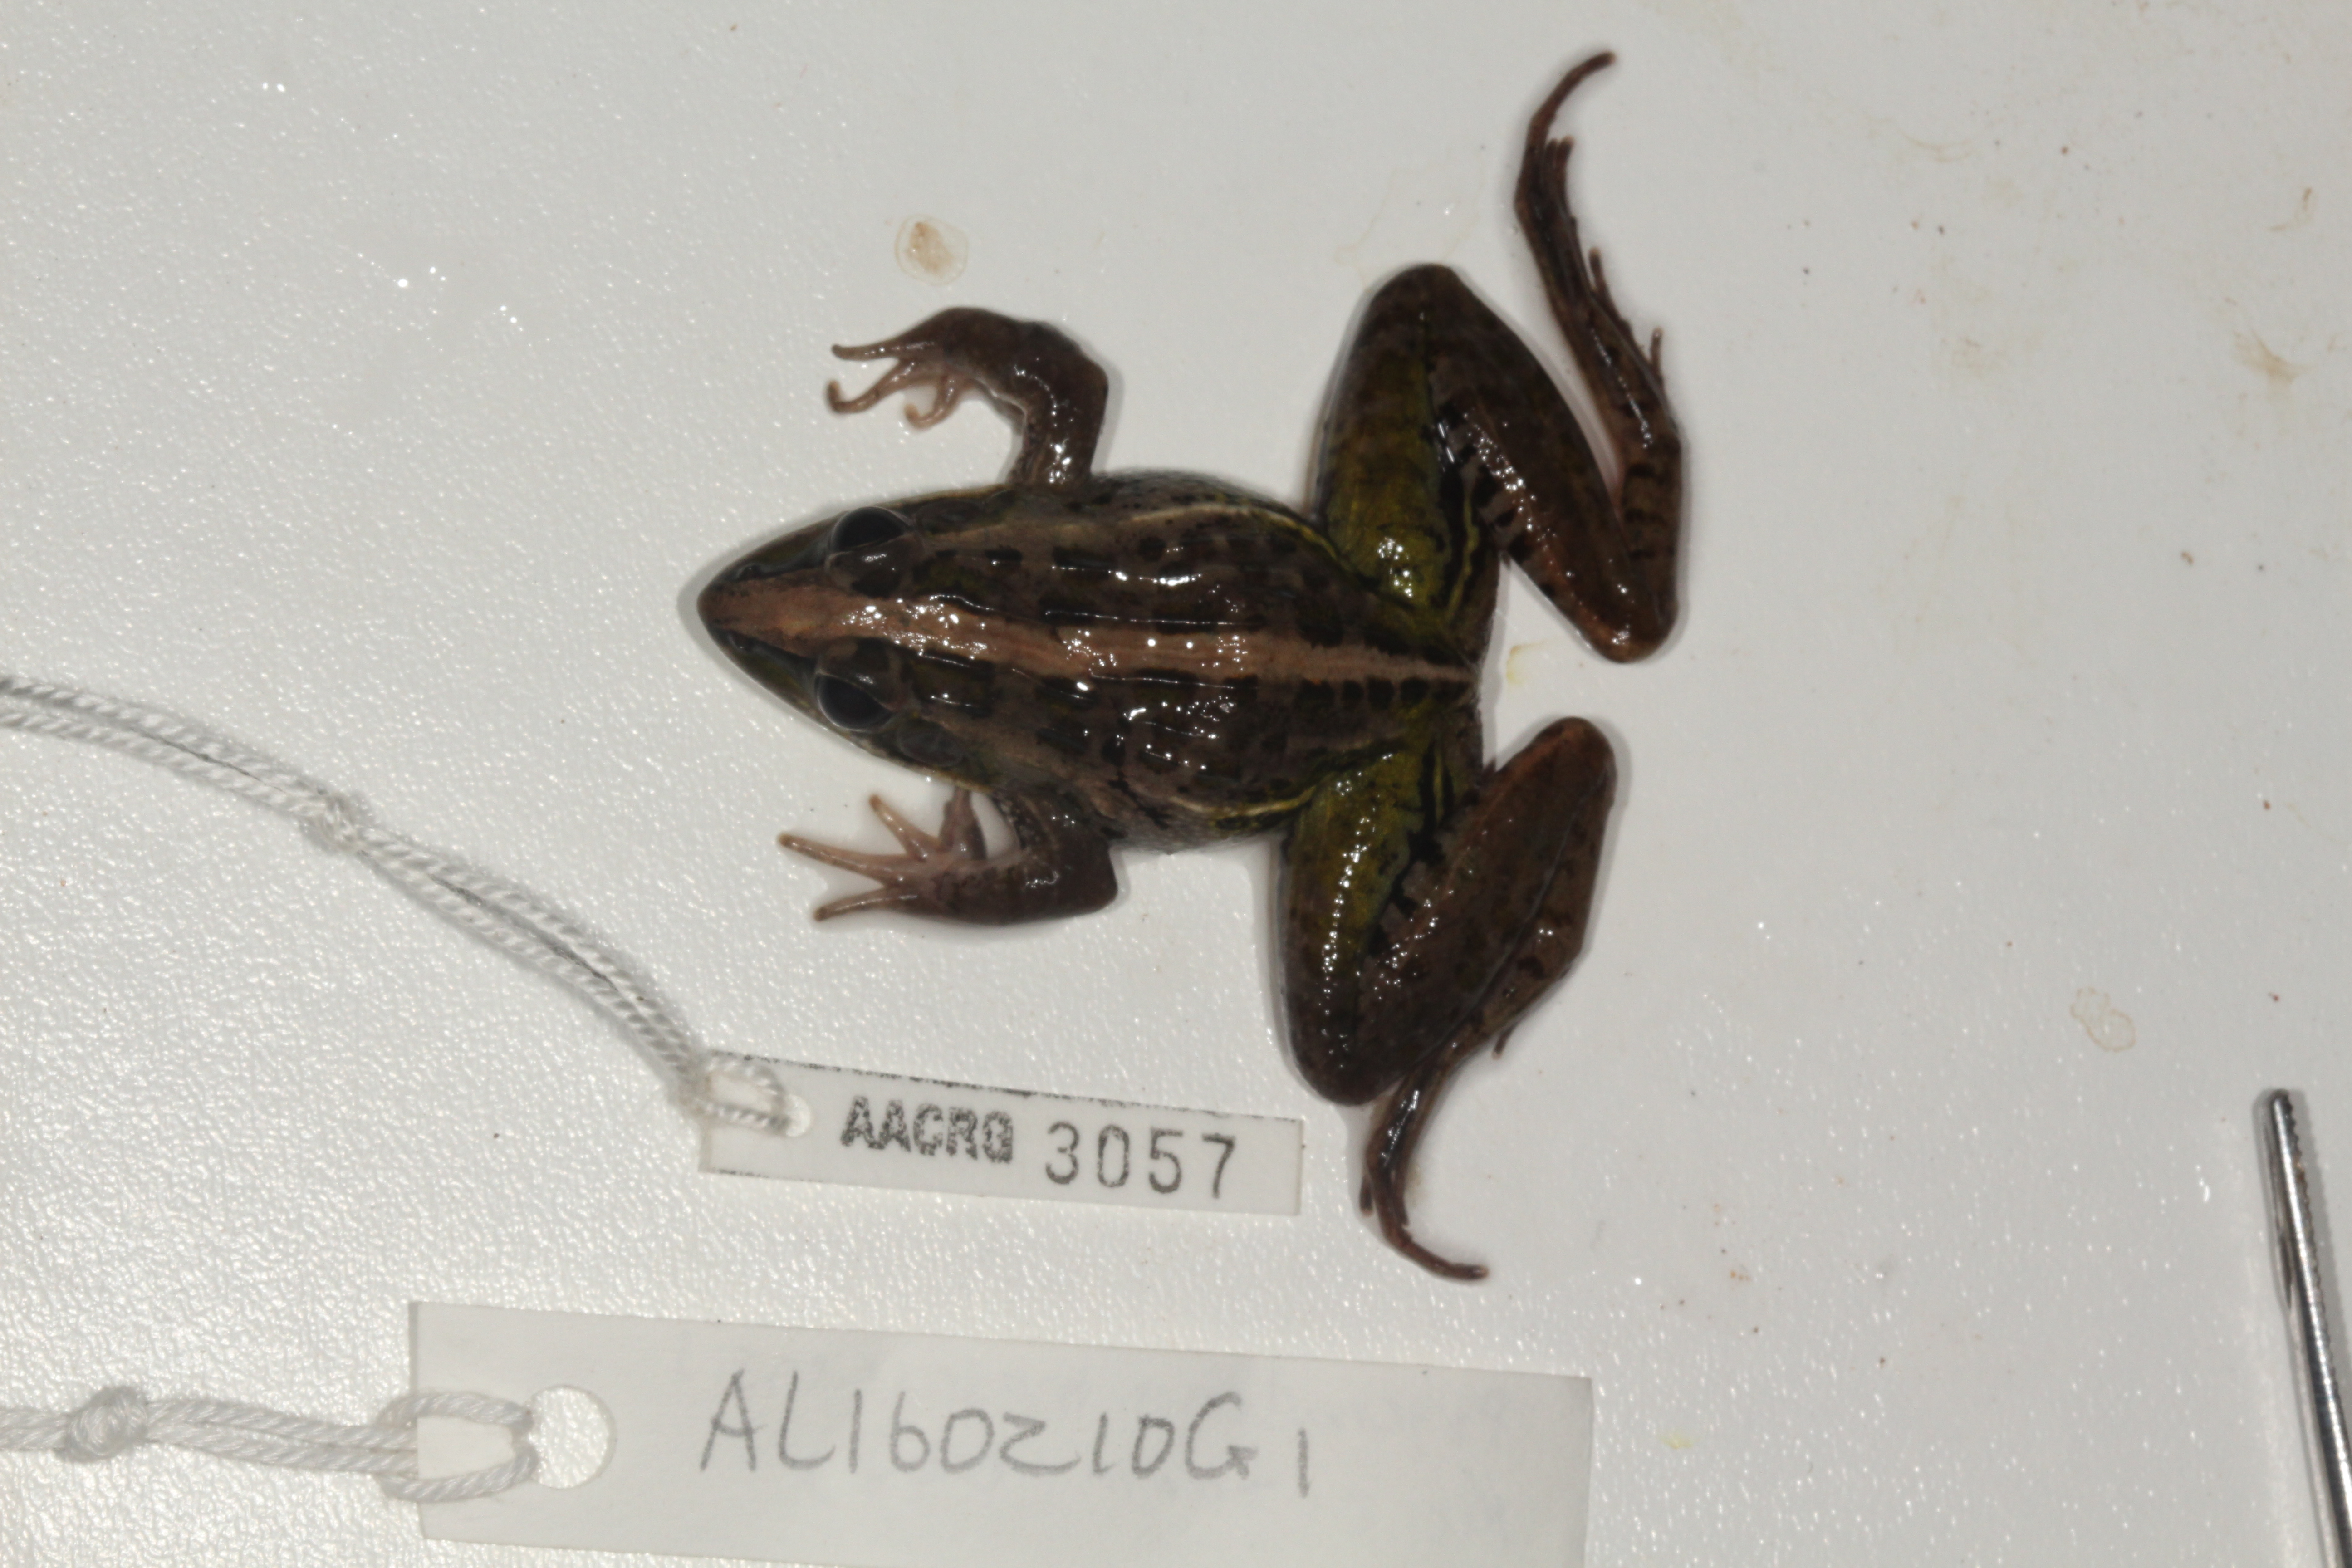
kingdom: Animalia
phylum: Chordata
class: Amphibia
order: Anura
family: Ptychadenidae
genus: Ptychadena
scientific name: Ptychadena mascareniensis
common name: Mascarene grass frog
